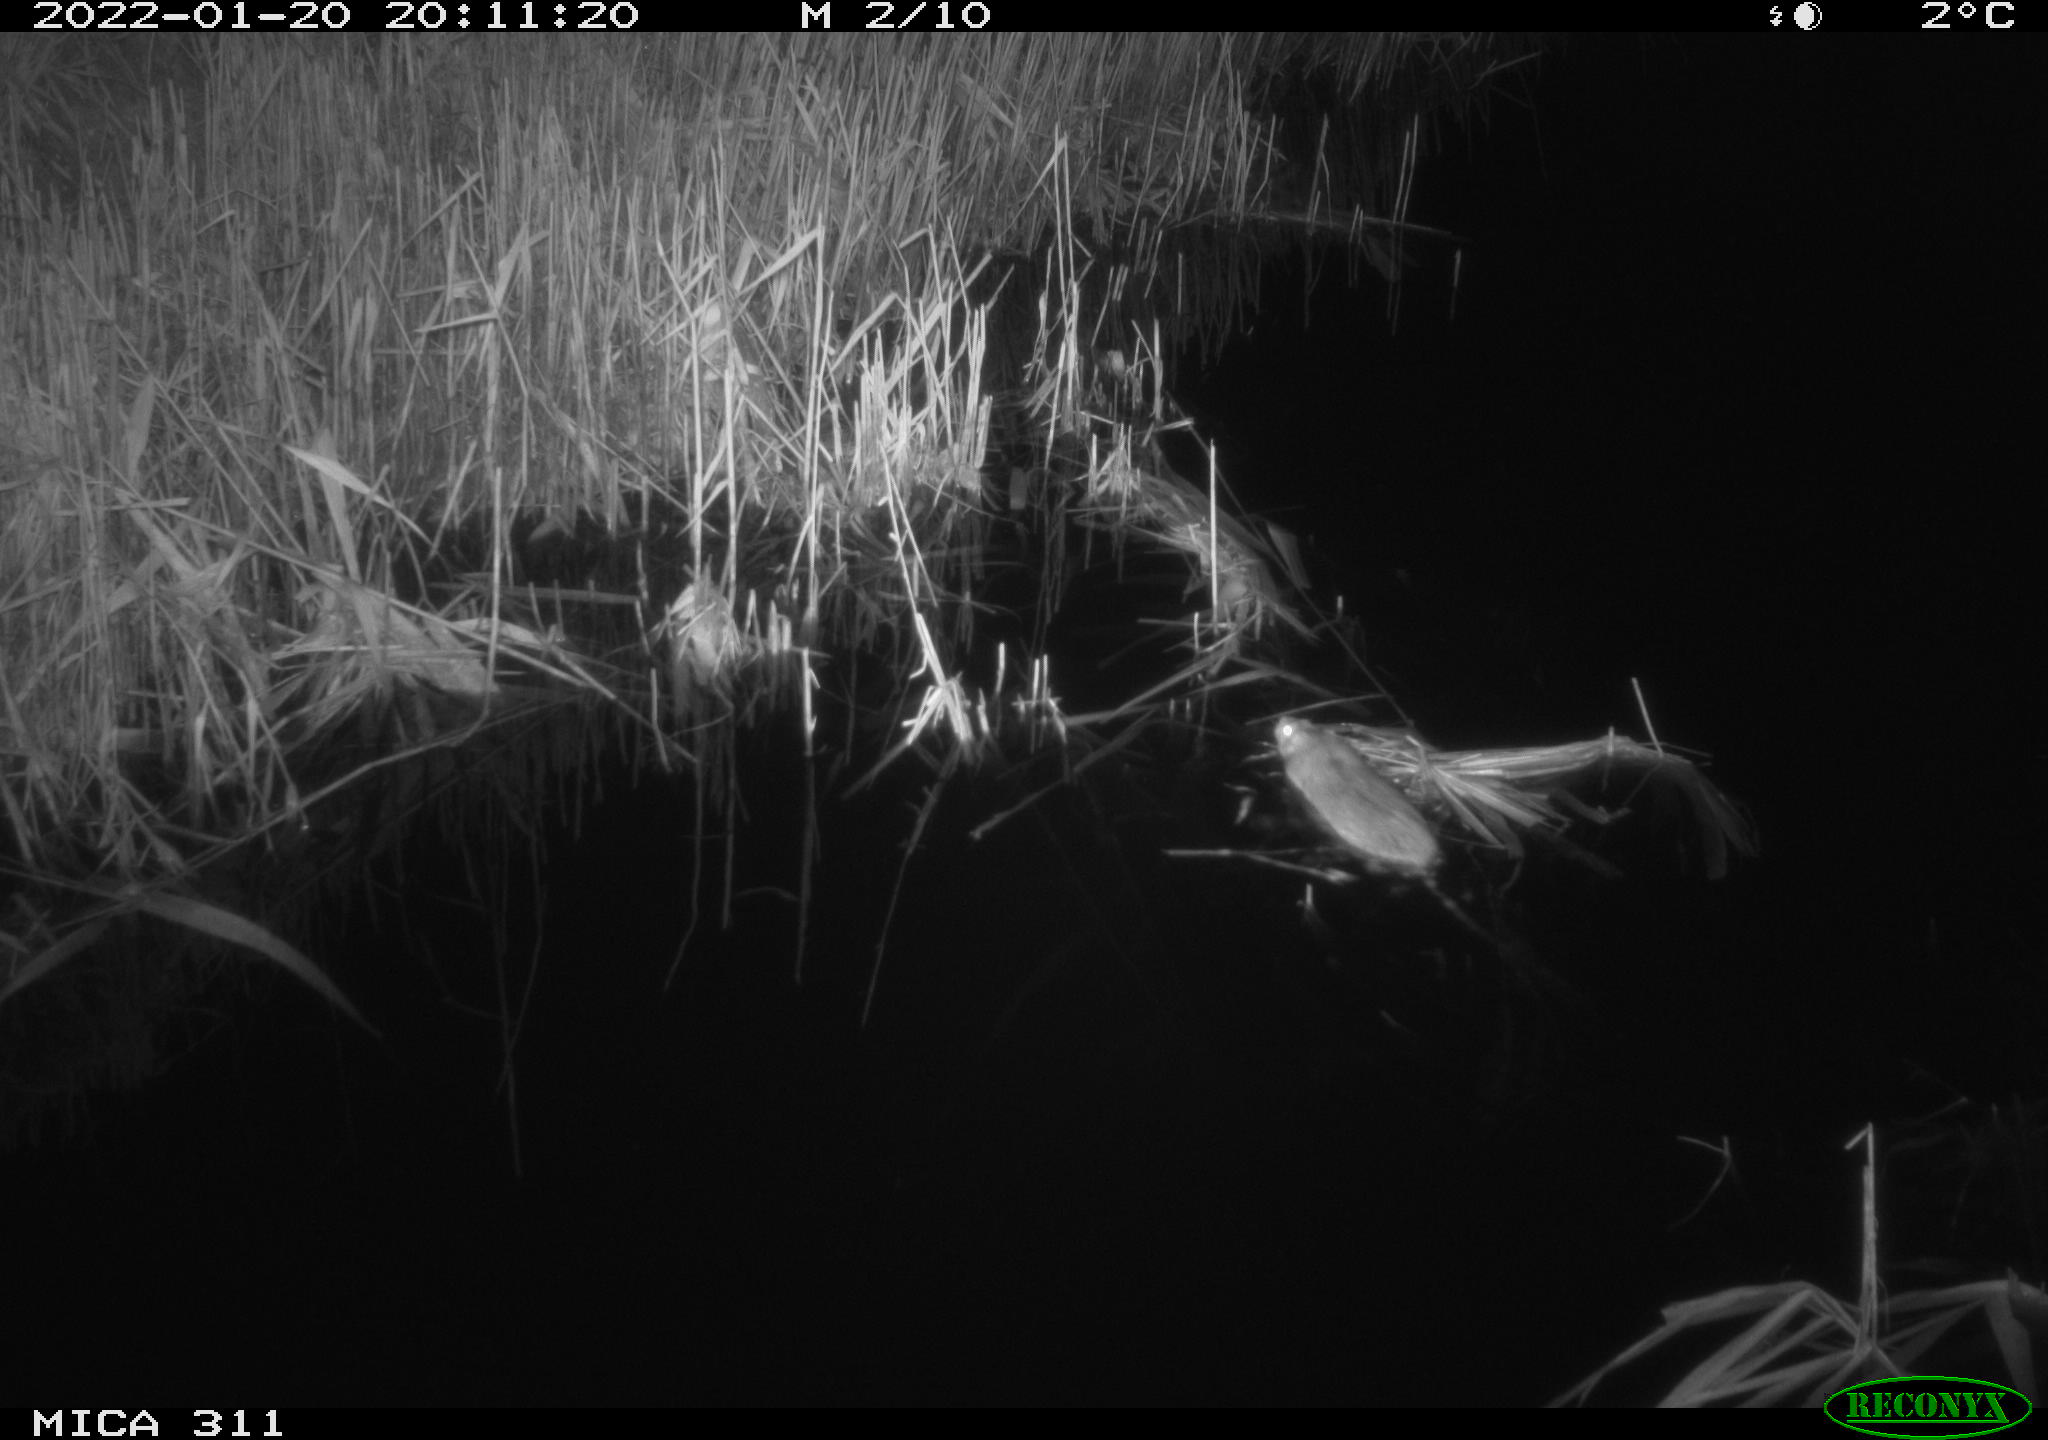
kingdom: Animalia
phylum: Chordata
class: Mammalia
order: Rodentia
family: Muridae
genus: Rattus
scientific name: Rattus norvegicus
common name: Brown rat
